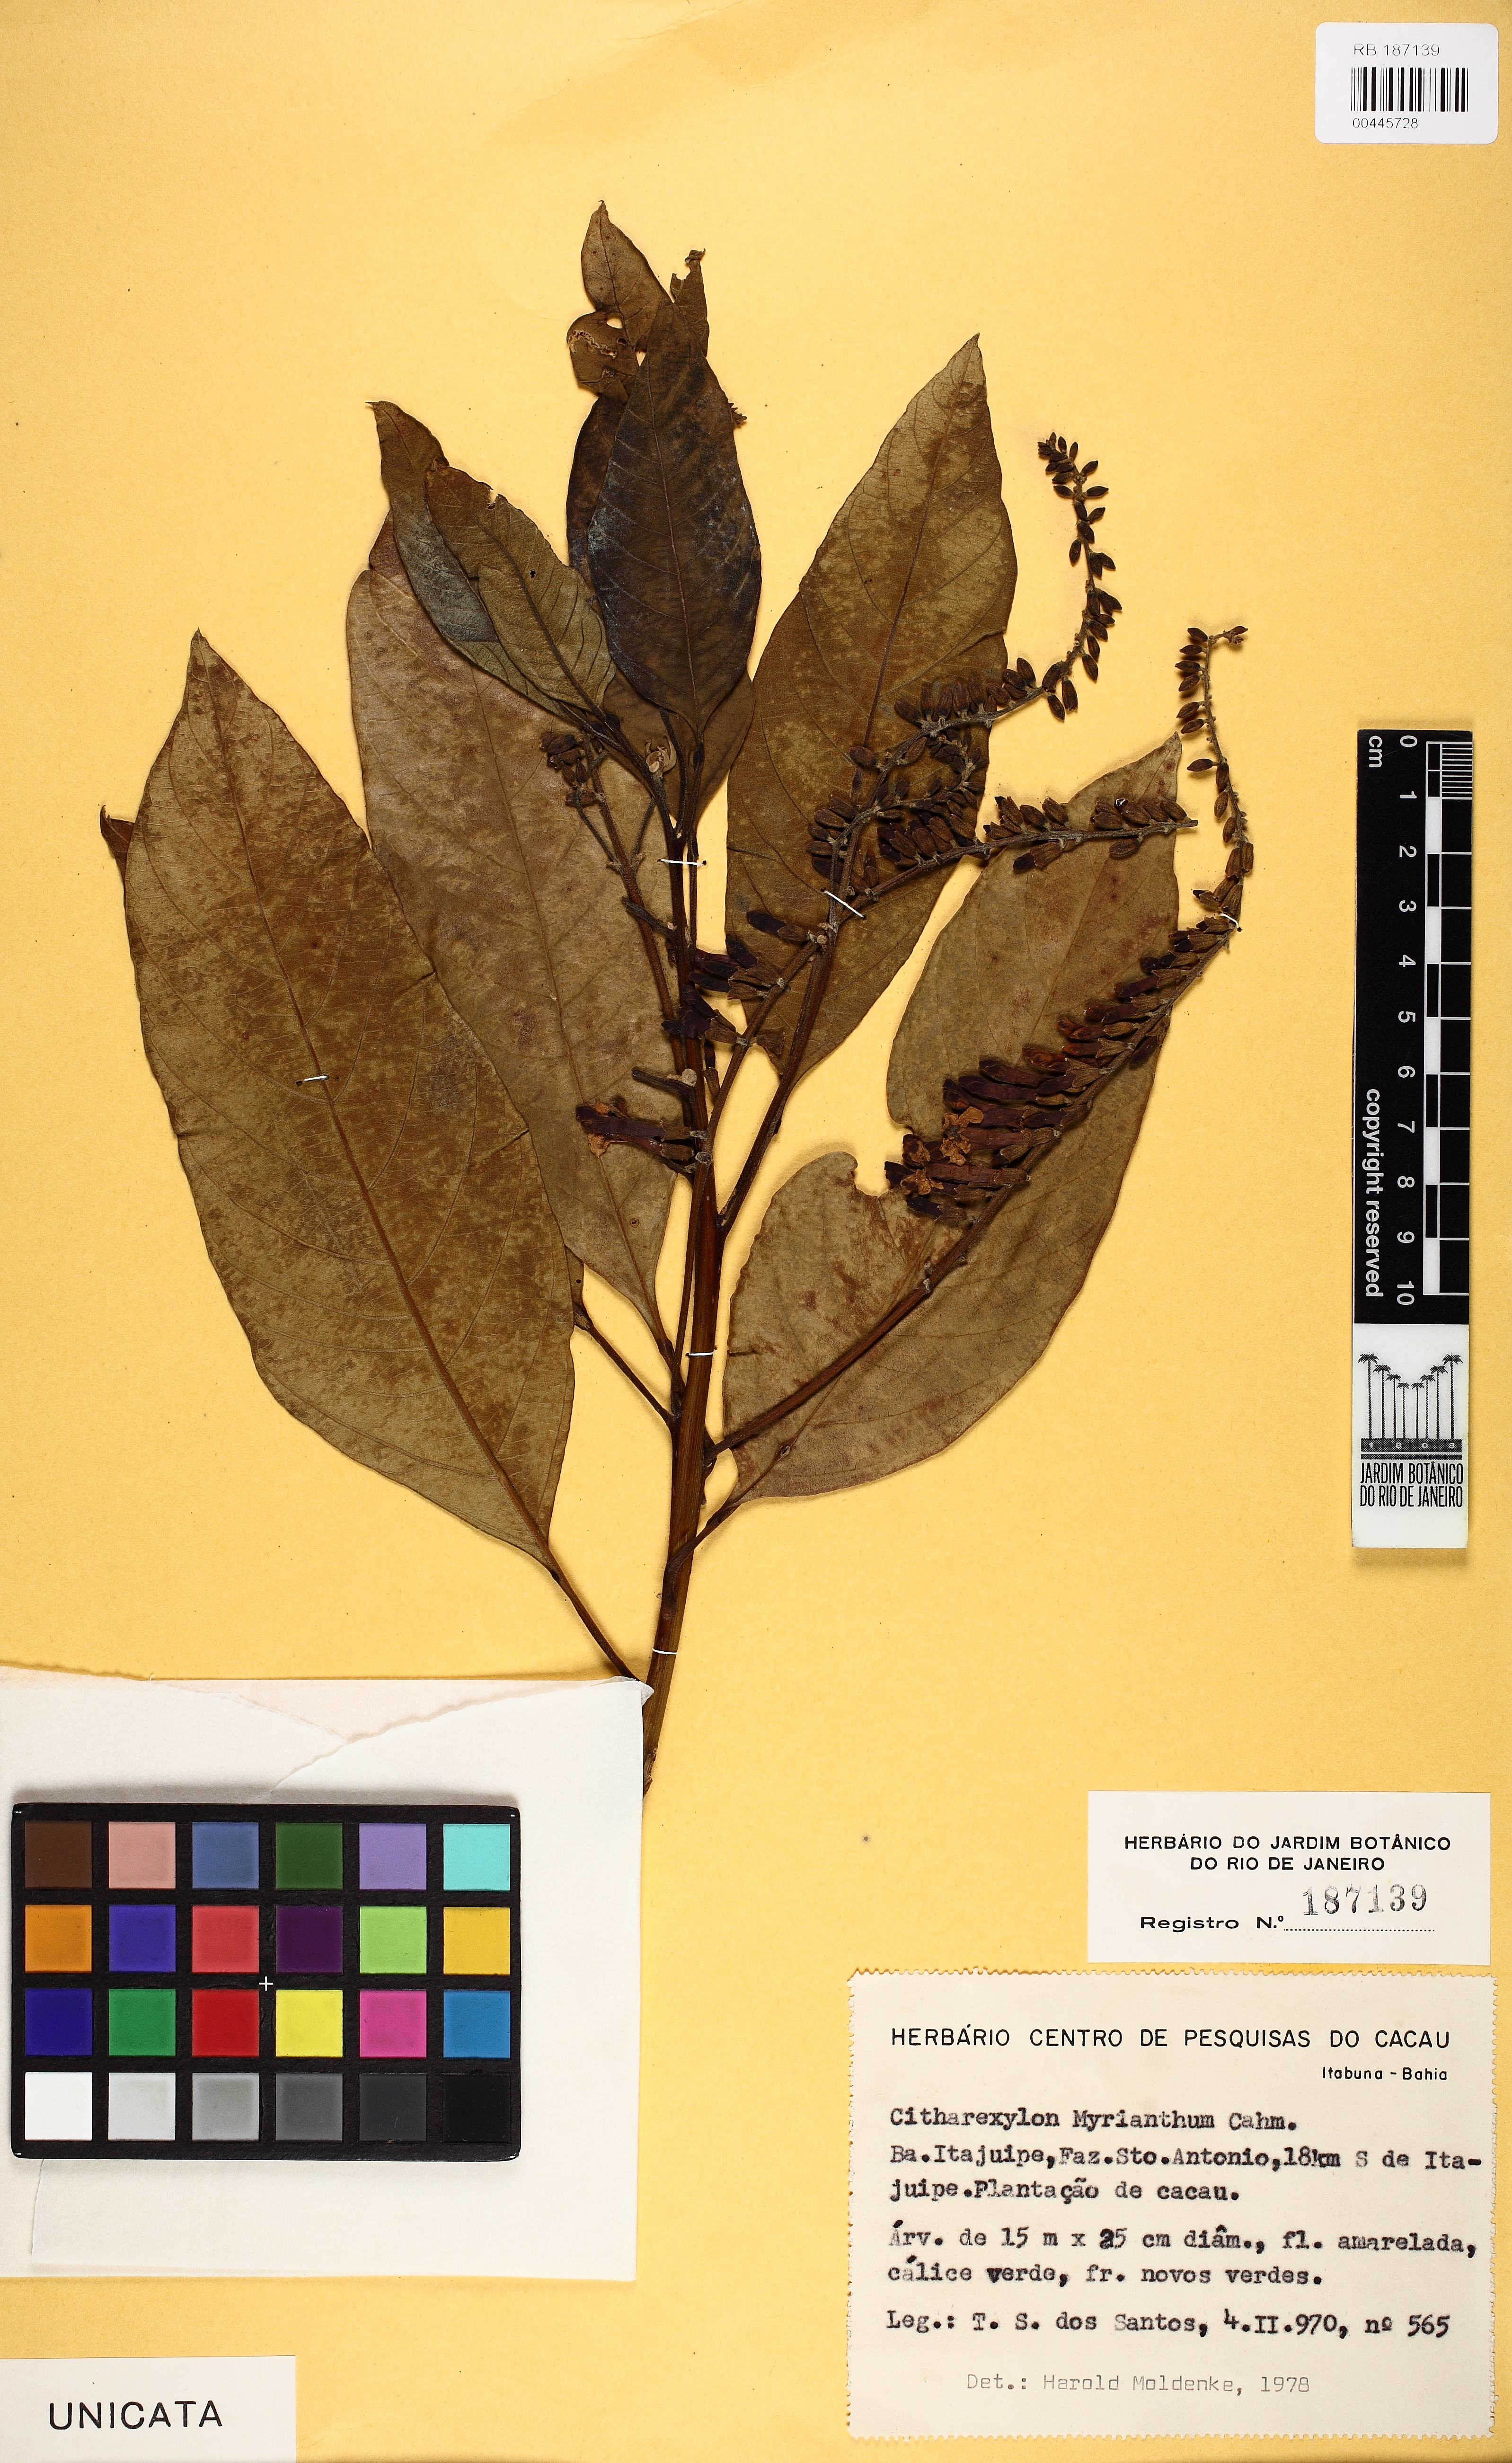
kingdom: Plantae
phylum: Tracheophyta
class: Magnoliopsida
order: Lamiales
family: Verbenaceae
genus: Citharexylum
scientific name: Citharexylum myrianthum
